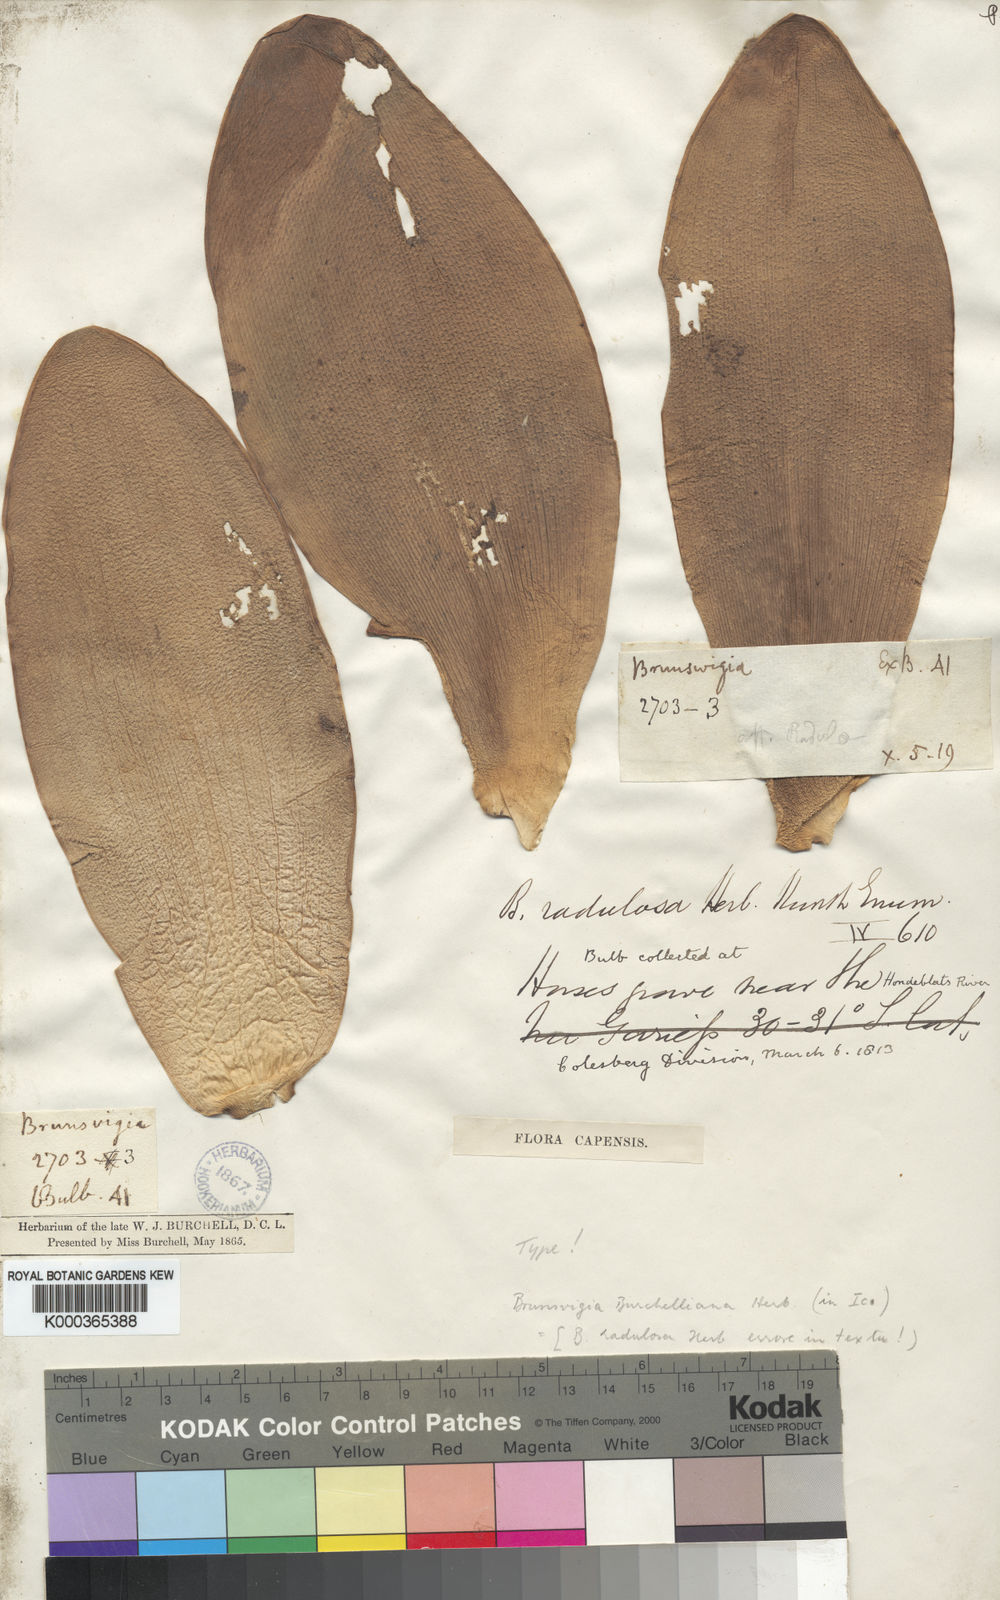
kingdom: Plantae
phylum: Tracheophyta
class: Liliopsida
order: Asparagales
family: Amaryllidaceae
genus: Brunsvigia
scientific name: Brunsvigia radulosa
